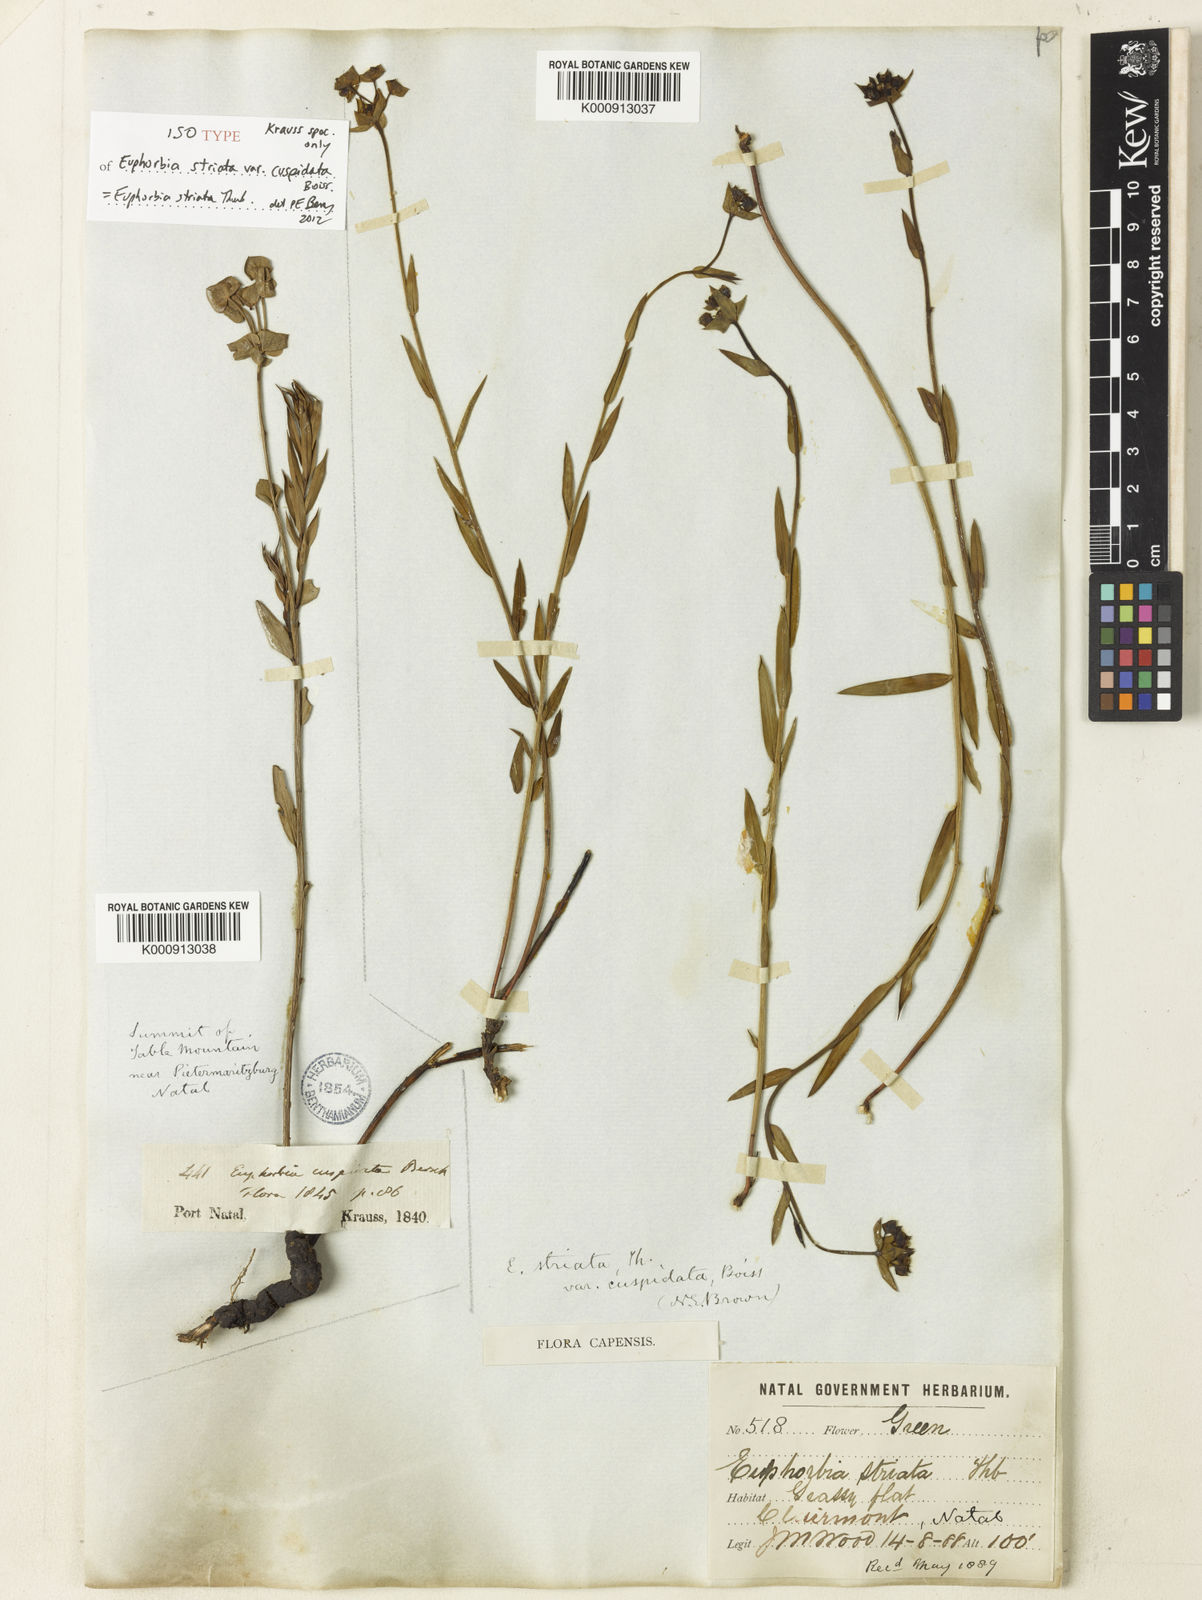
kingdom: Plantae
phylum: Tracheophyta
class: Magnoliopsida
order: Malpighiales
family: Euphorbiaceae
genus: Euphorbia
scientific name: Euphorbia striata
